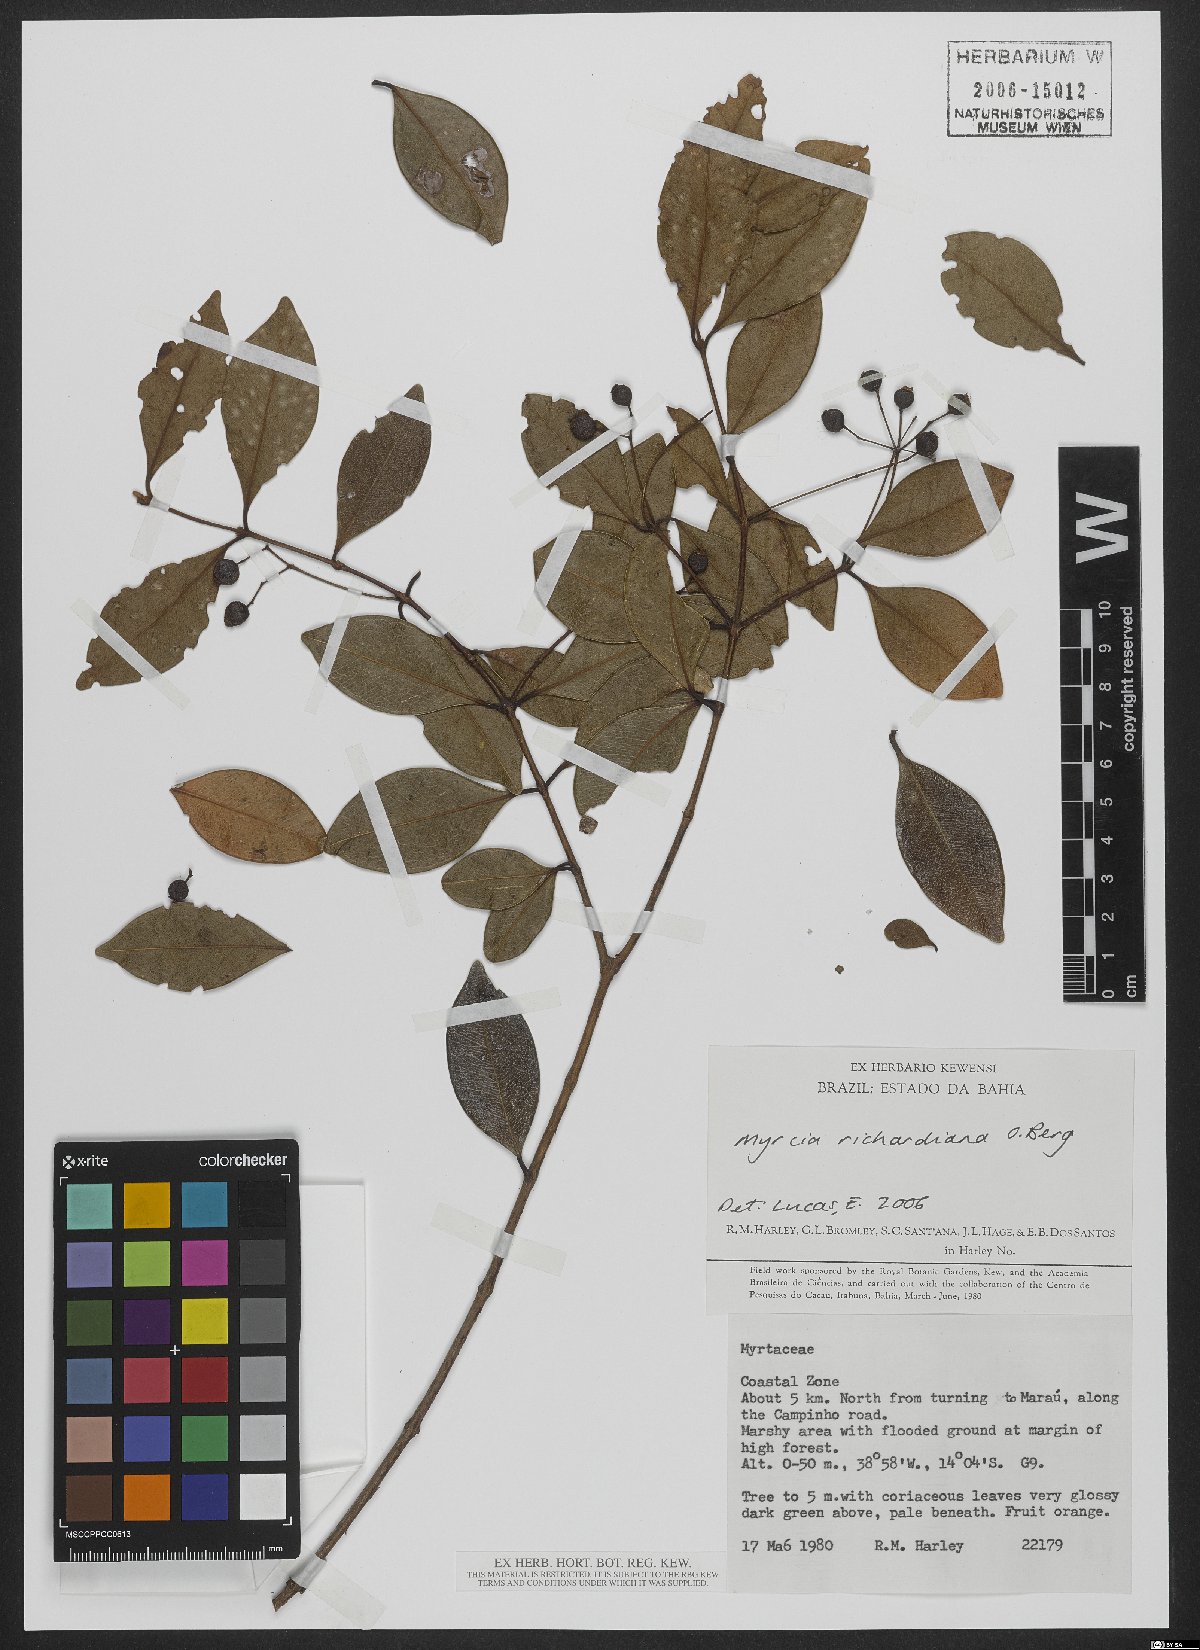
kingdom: Plantae
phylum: Tracheophyta
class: Magnoliopsida
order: Myrtales
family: Myrtaceae
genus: Myrcia
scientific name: Myrcia richardiana
